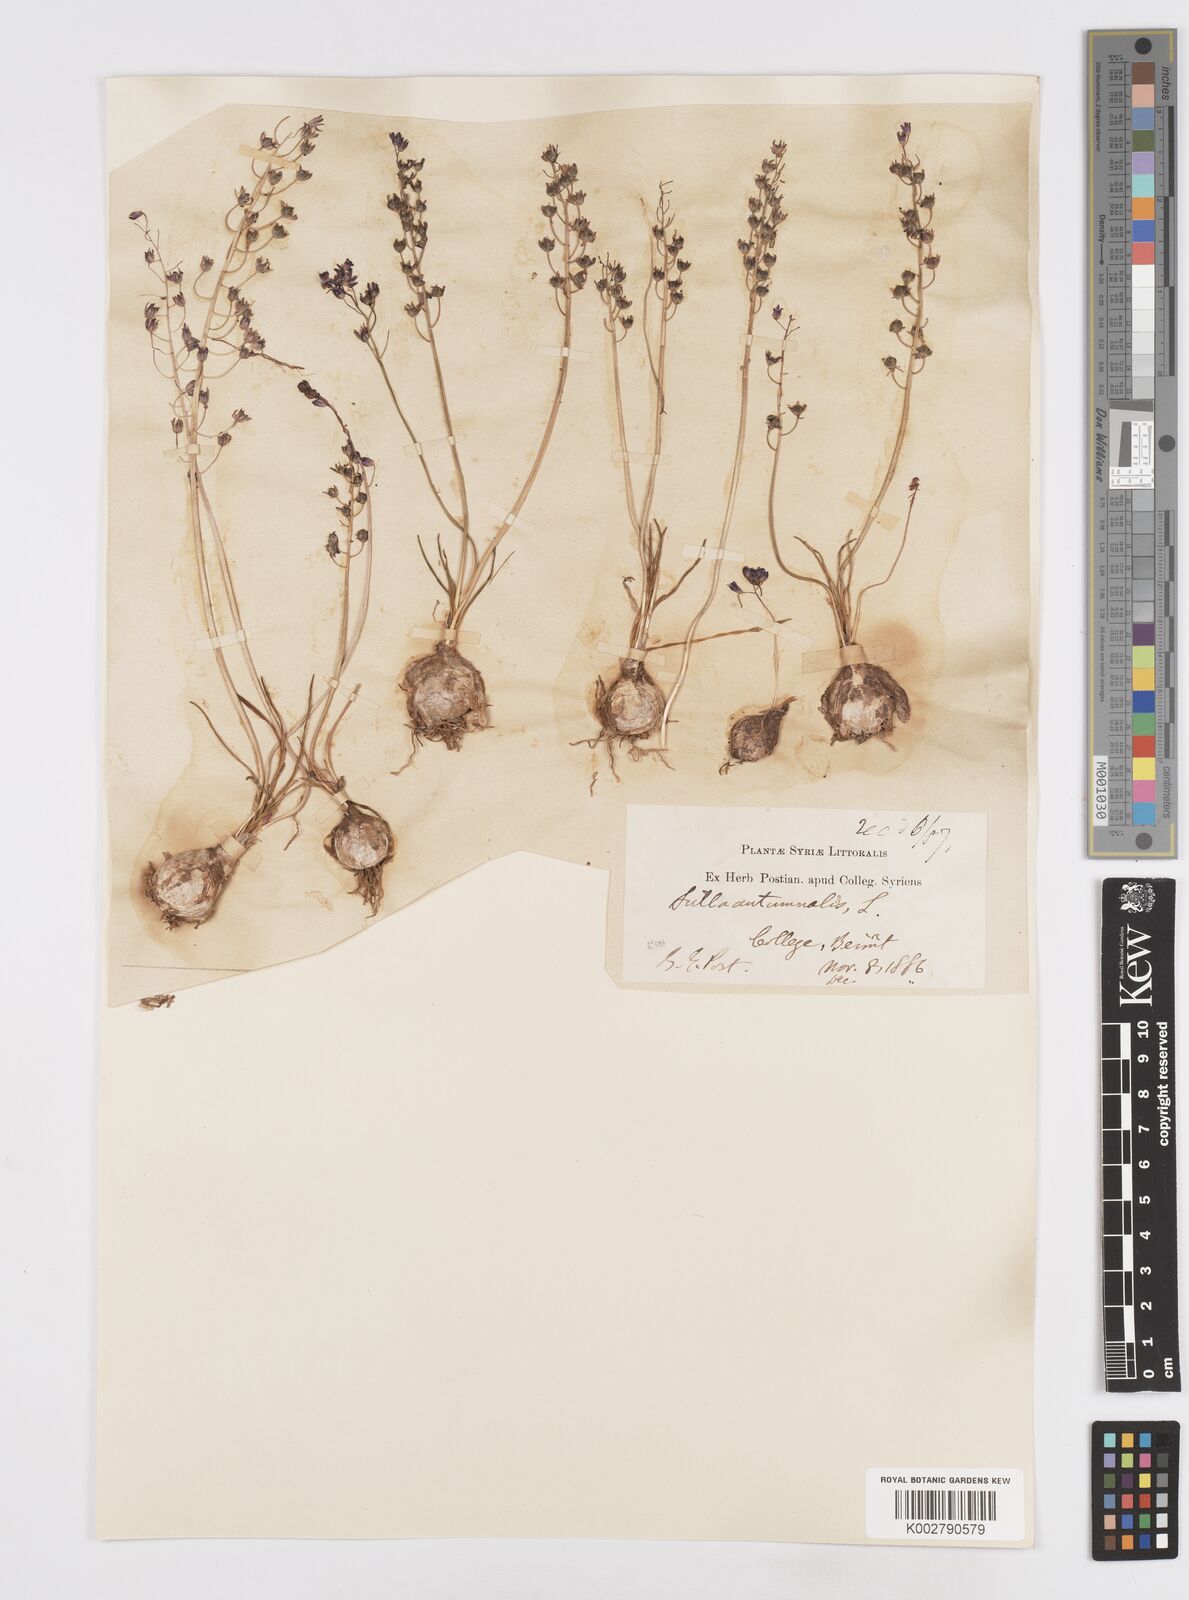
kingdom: Plantae
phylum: Tracheophyta
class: Liliopsida
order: Asparagales
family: Asparagaceae
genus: Prospero
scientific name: Prospero autumnale
